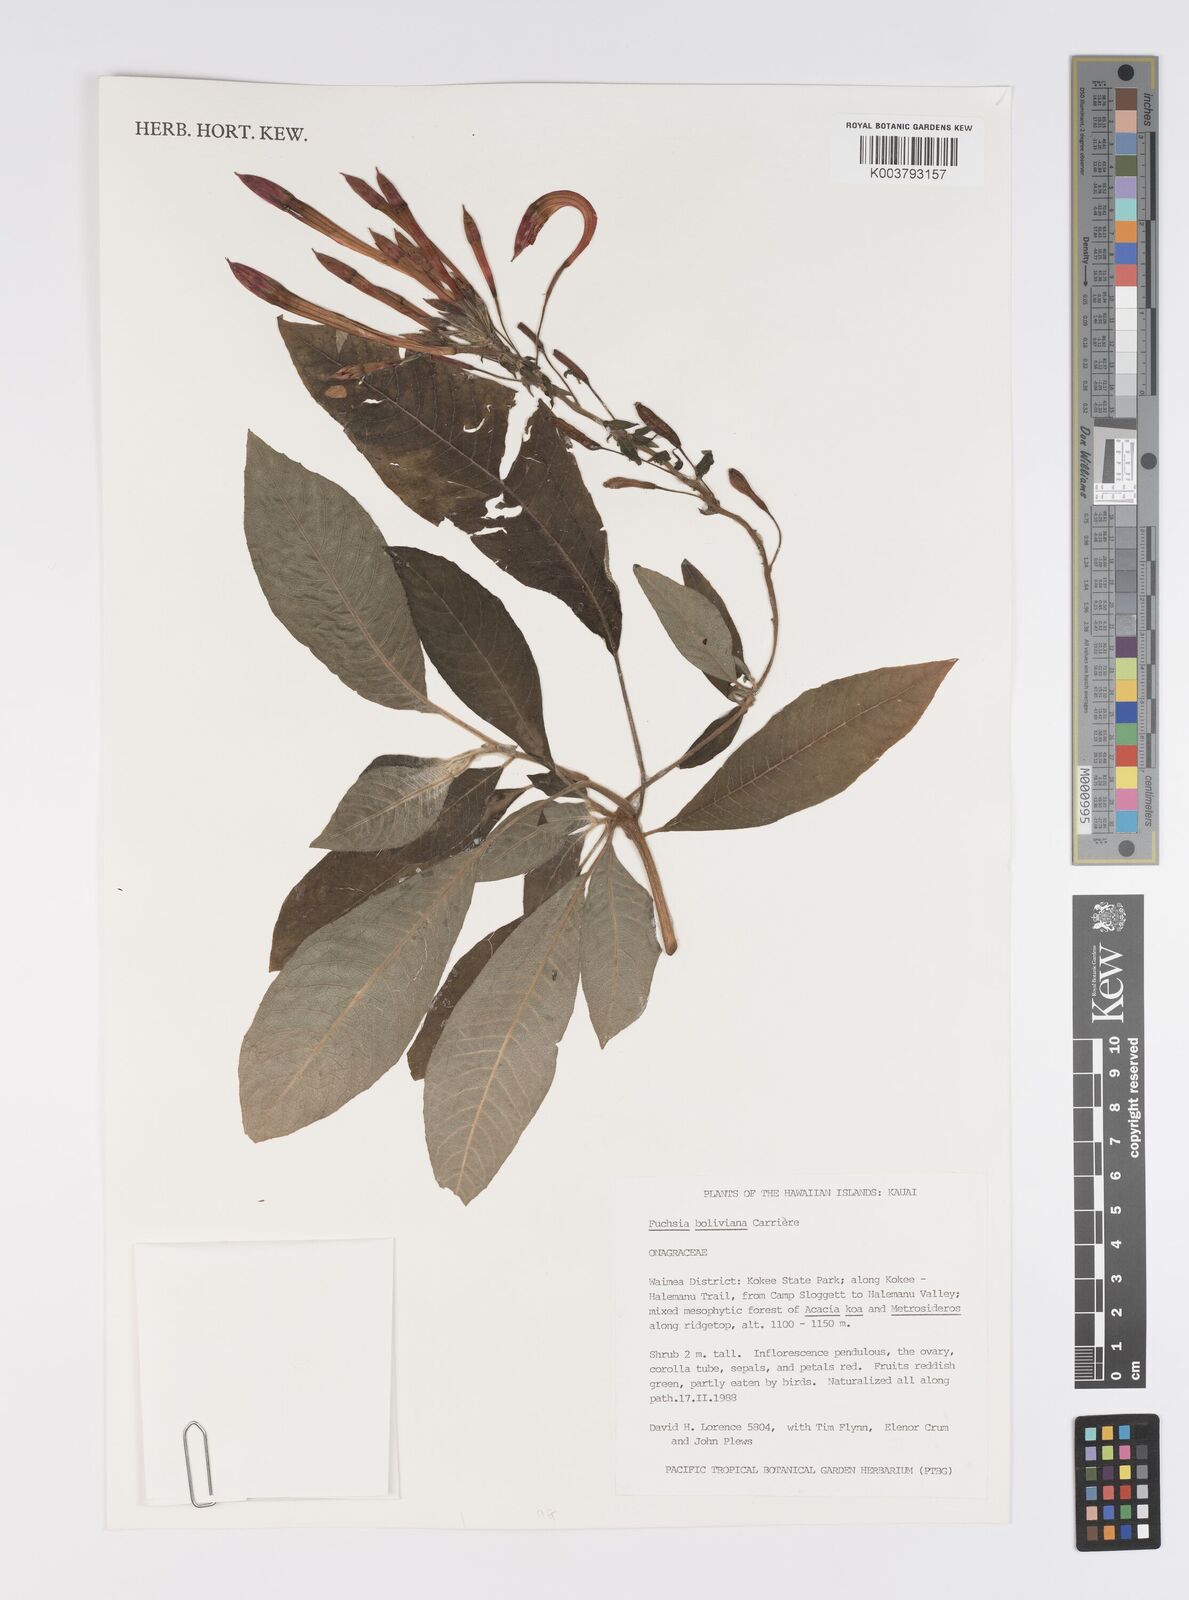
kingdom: Plantae
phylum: Tracheophyta
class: Magnoliopsida
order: Myrtales
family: Onagraceae
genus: Fuchsia
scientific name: Fuchsia
